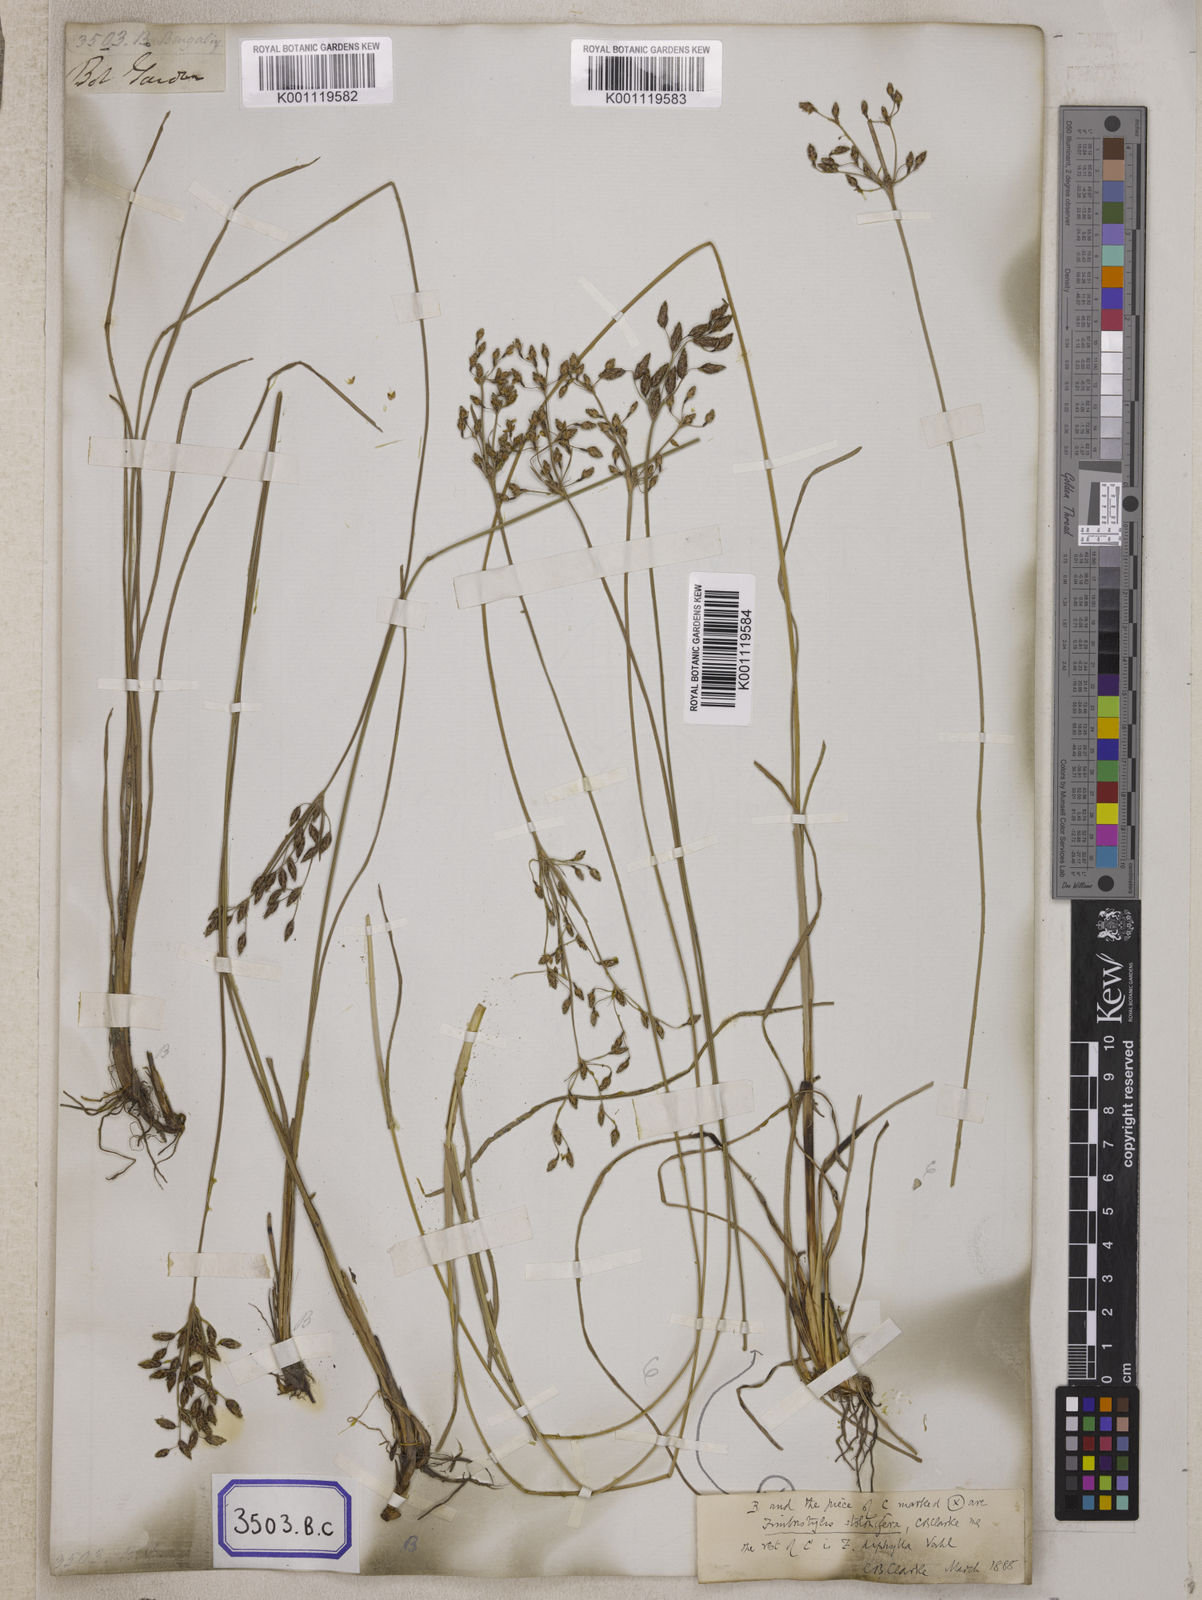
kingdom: Plantae
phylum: Tracheophyta
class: Liliopsida
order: Poales
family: Cyperaceae
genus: Fimbristylis
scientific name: Fimbristylis
